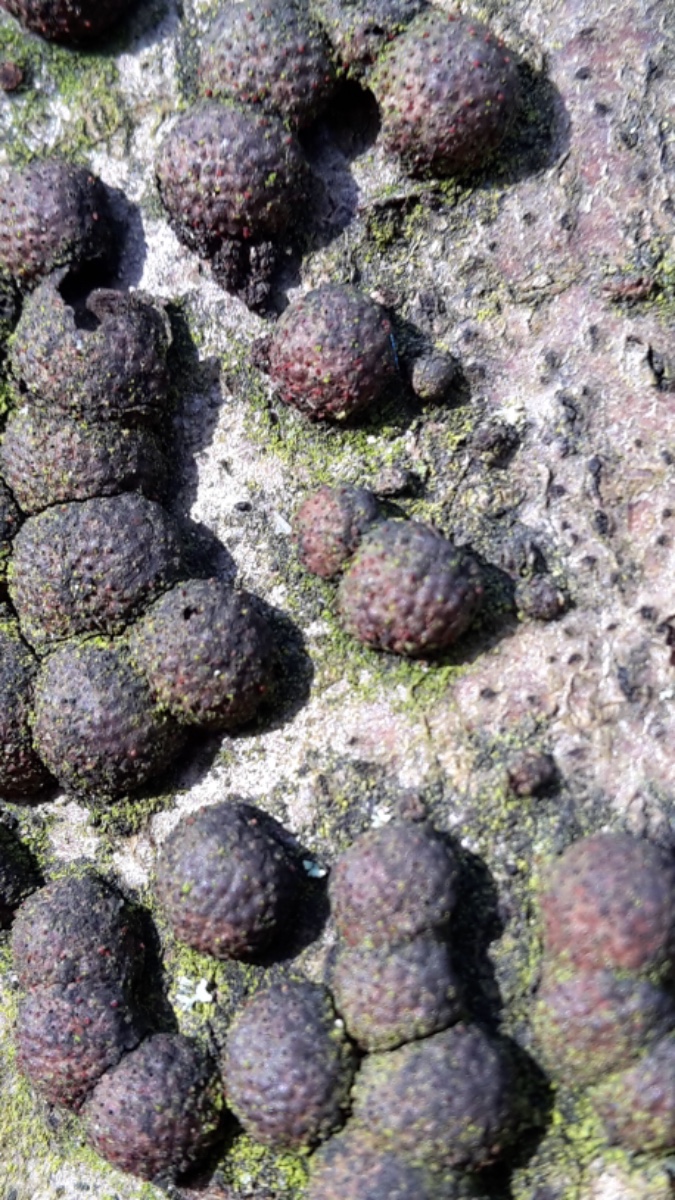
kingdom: Fungi
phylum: Ascomycota
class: Sordariomycetes
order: Xylariales
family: Hypoxylaceae
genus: Hypoxylon
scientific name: Hypoxylon fragiforme
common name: kuljordbær
